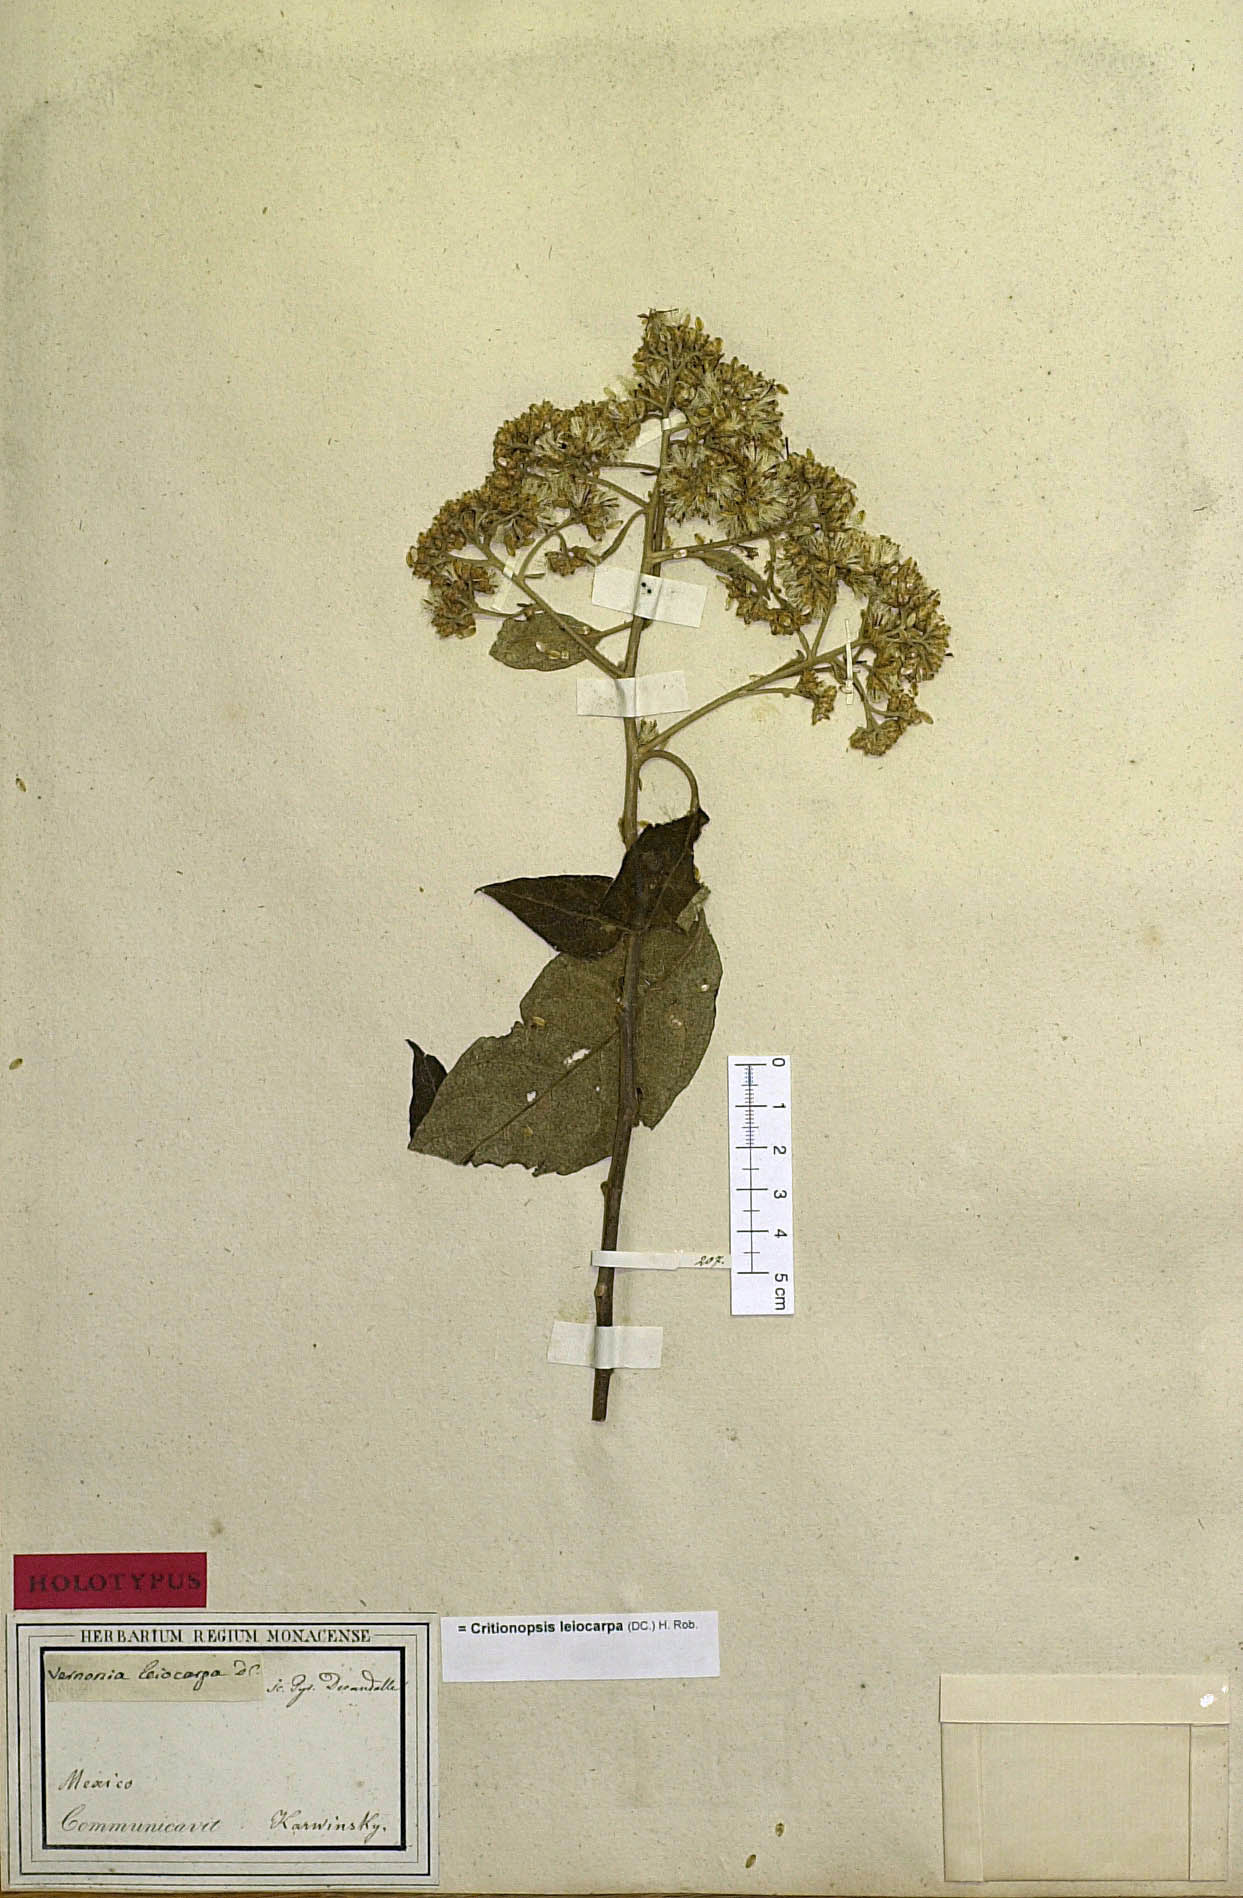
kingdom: Plantae
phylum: Tracheophyta
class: Magnoliopsida
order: Asterales
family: Asteraceae
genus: Eremosis
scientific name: Eremosis leiocarpa
